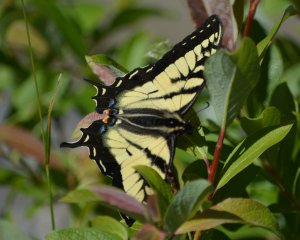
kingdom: Animalia
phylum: Arthropoda
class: Insecta
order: Lepidoptera
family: Papilionidae
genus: Pterourus
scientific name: Pterourus canadensis
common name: Canadian Tiger Swallowtail
